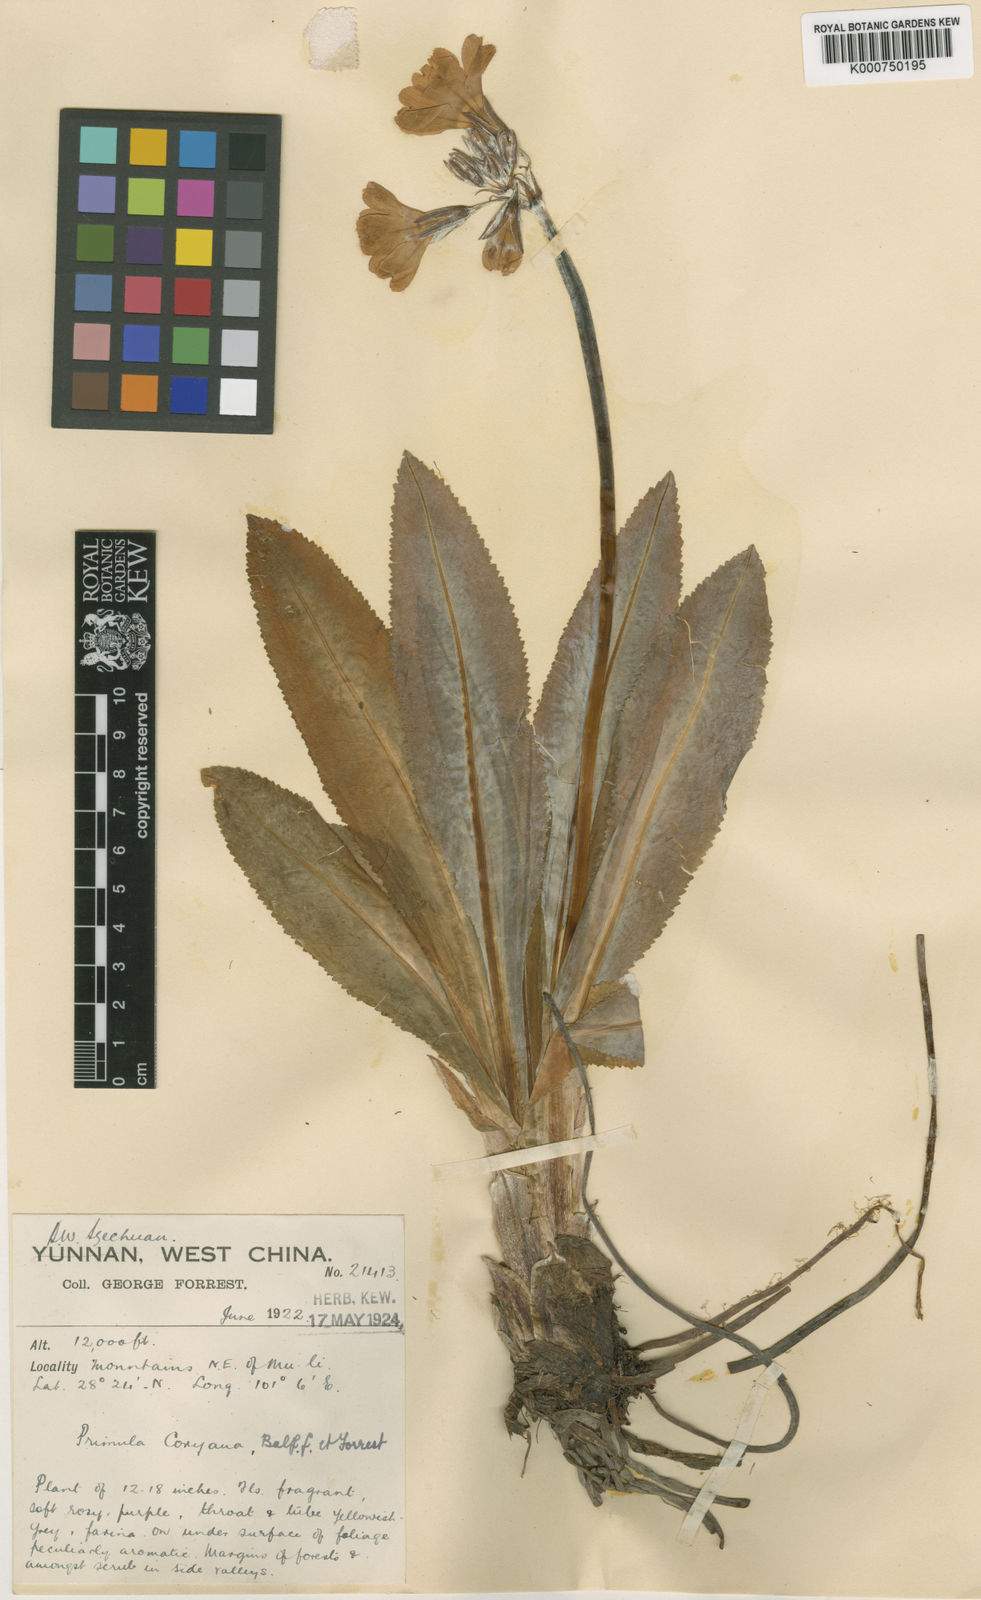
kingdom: Plantae
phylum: Tracheophyta
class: Magnoliopsida
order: Ericales
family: Primulaceae
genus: Primula
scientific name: Primula boreiocalliantha
